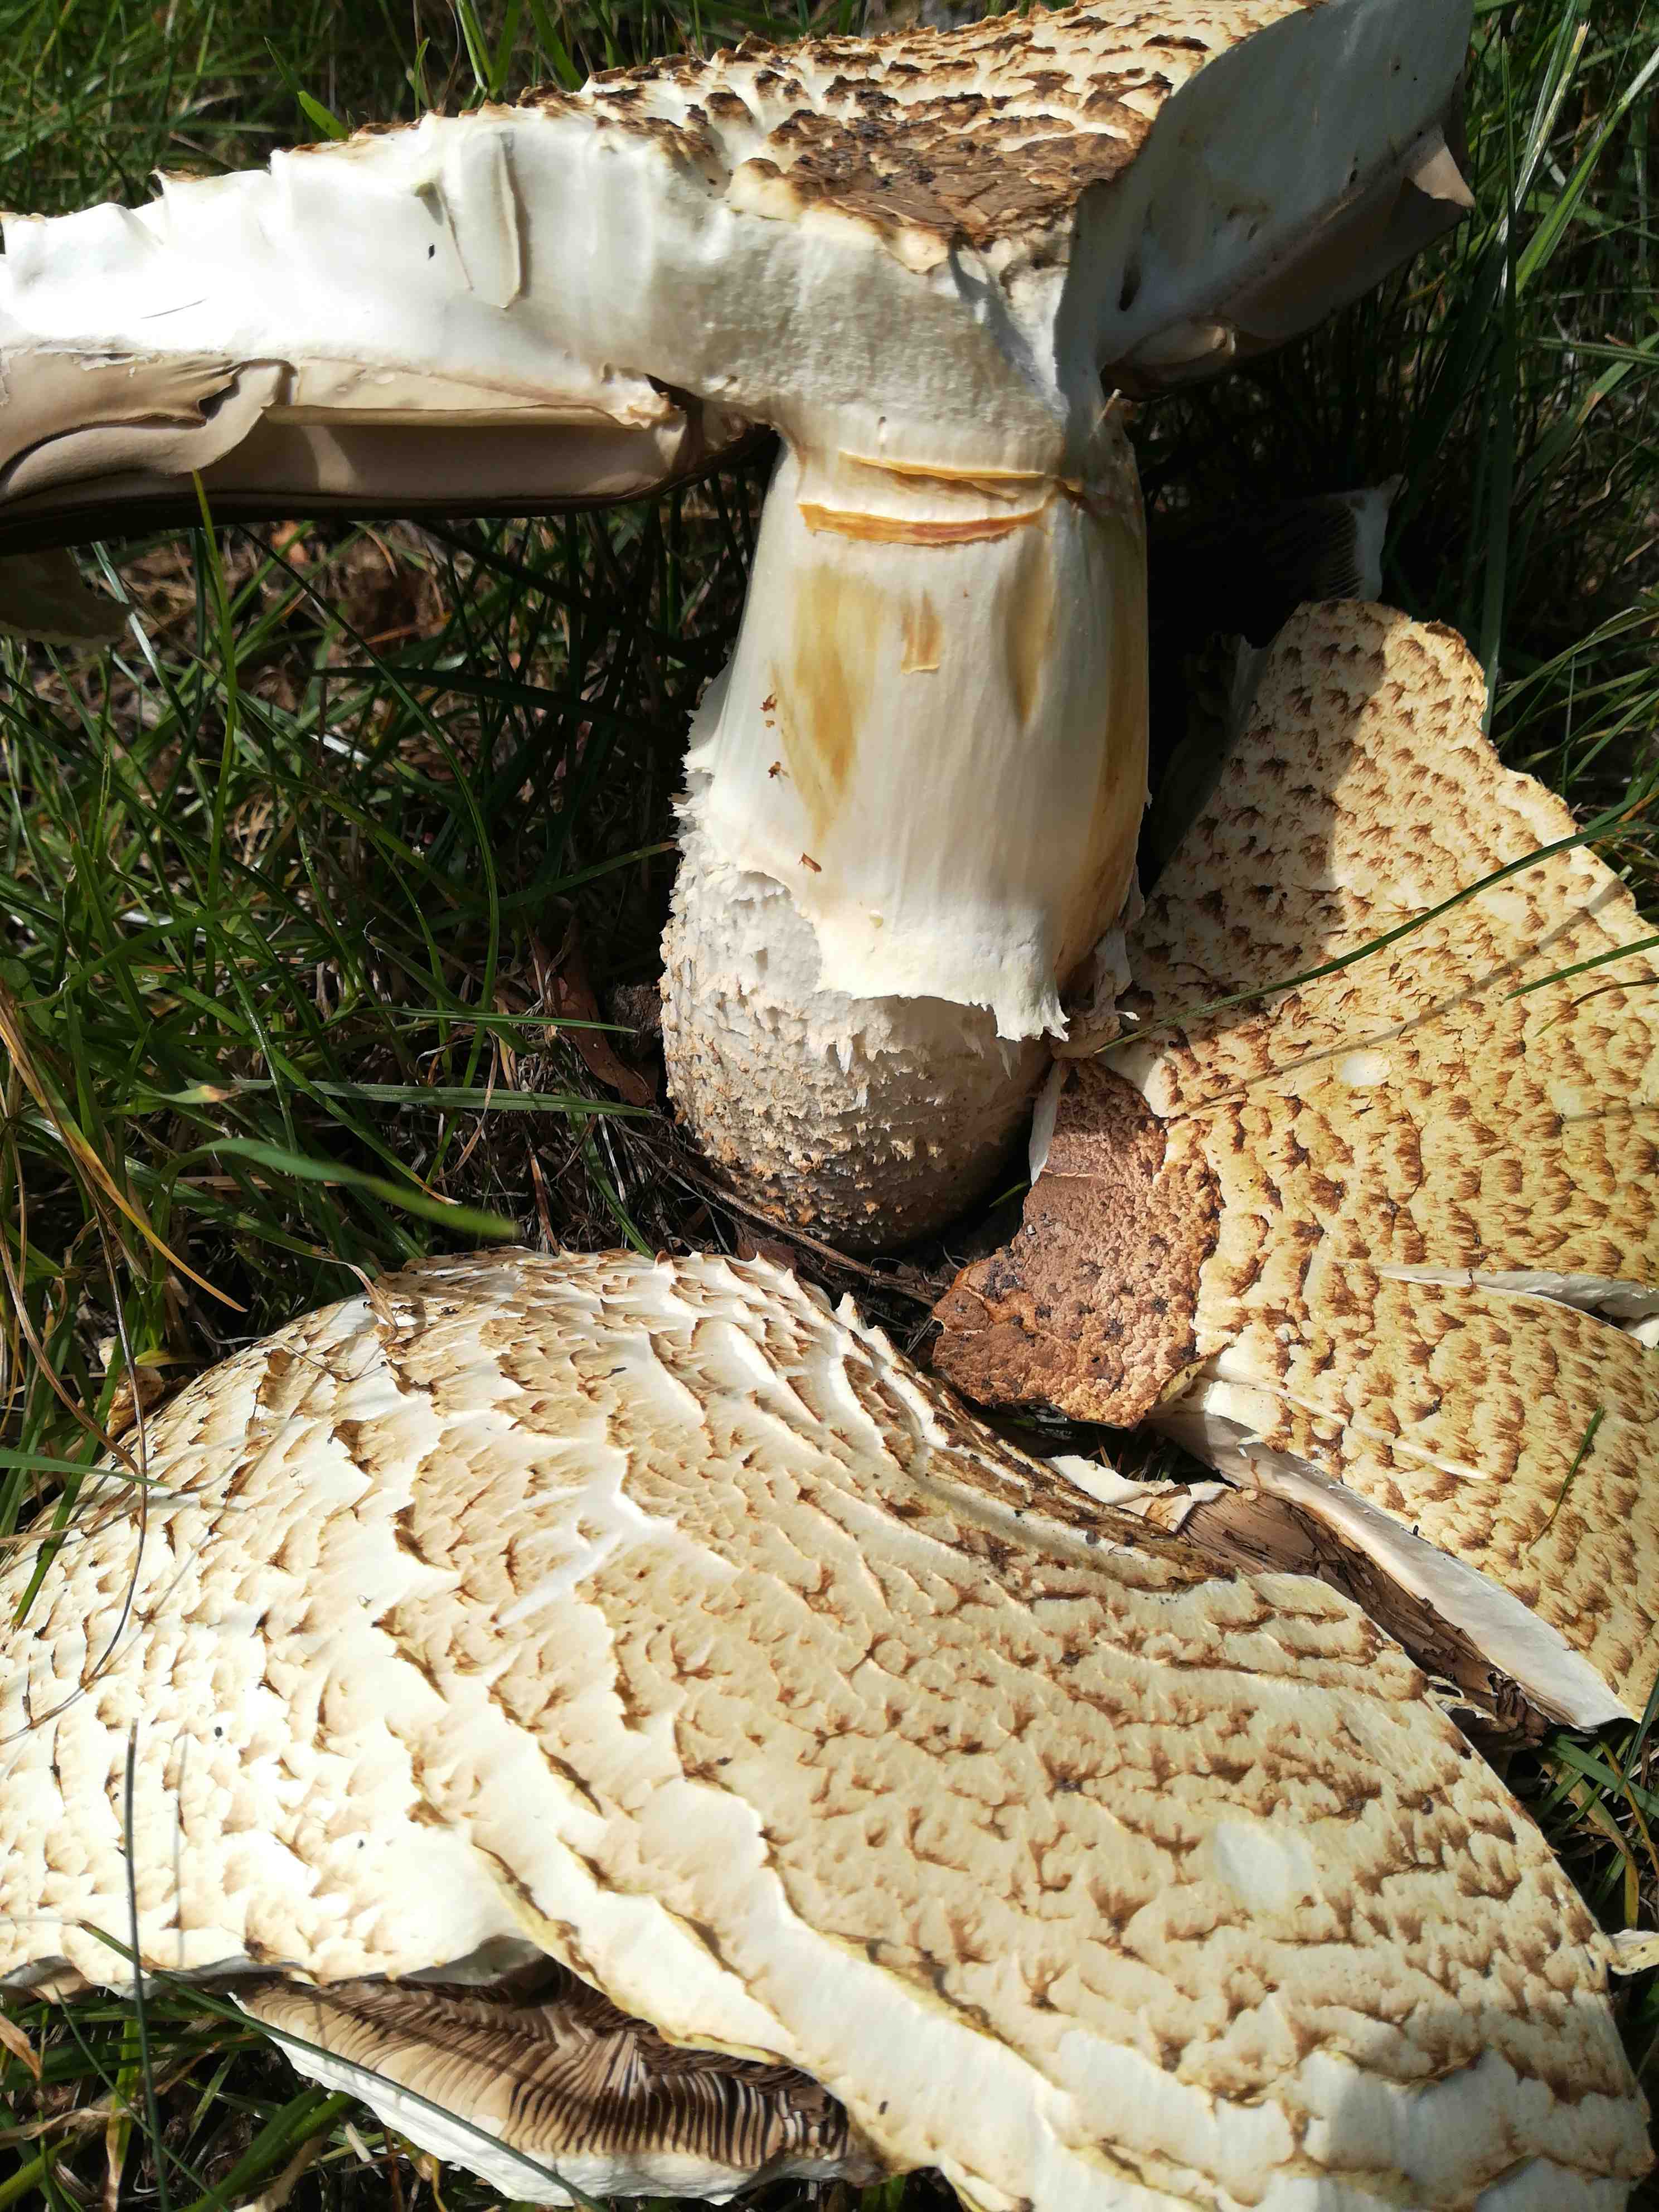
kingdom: Fungi
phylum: Basidiomycota
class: Agaricomycetes
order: Agaricales
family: Agaricaceae
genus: Agaricus
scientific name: Agaricus augustus
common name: prægtig champignon
